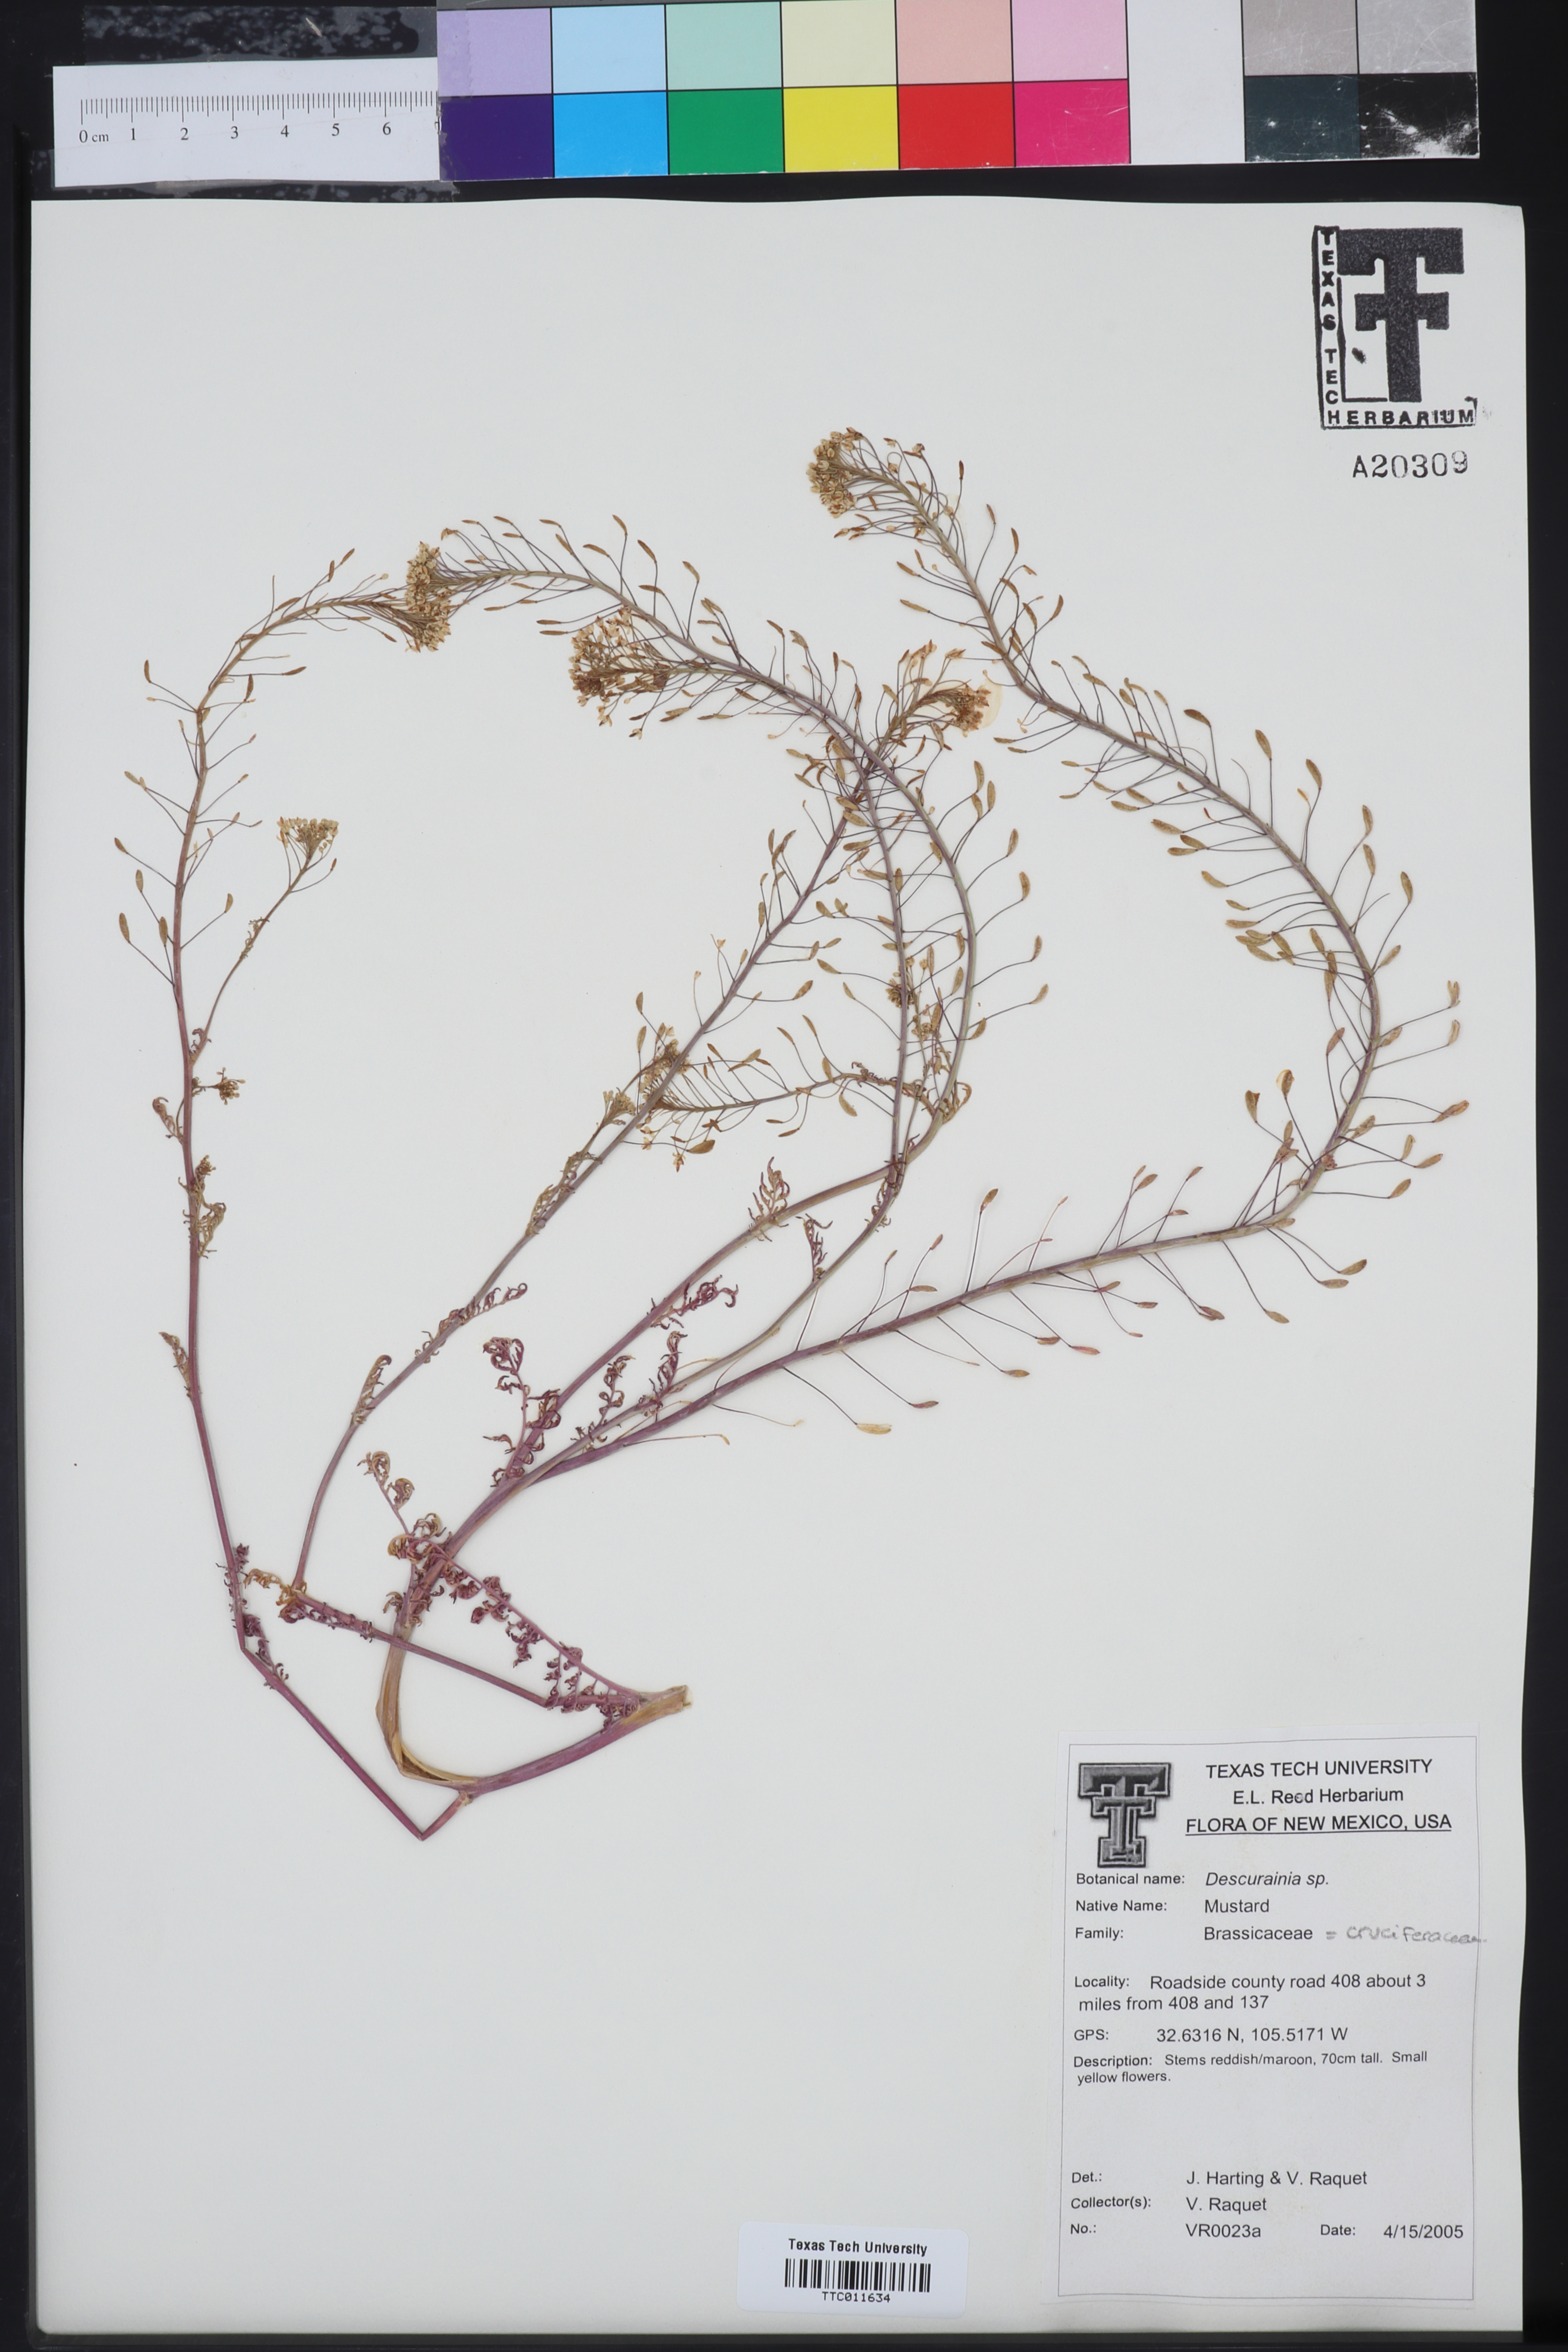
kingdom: Plantae
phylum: Tracheophyta
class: Magnoliopsida
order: Brassicales
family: Brassicaceae
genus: Descurainia
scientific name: Descurainia
